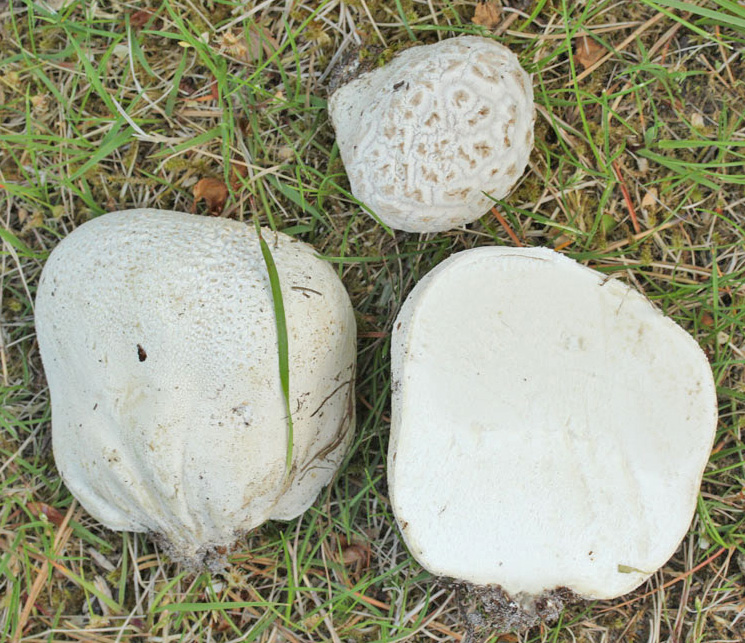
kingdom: Fungi
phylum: Basidiomycota
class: Agaricomycetes
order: Agaricales
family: Lycoperdaceae
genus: Bovistella
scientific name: Bovistella utriformis
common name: skællet støvbold
